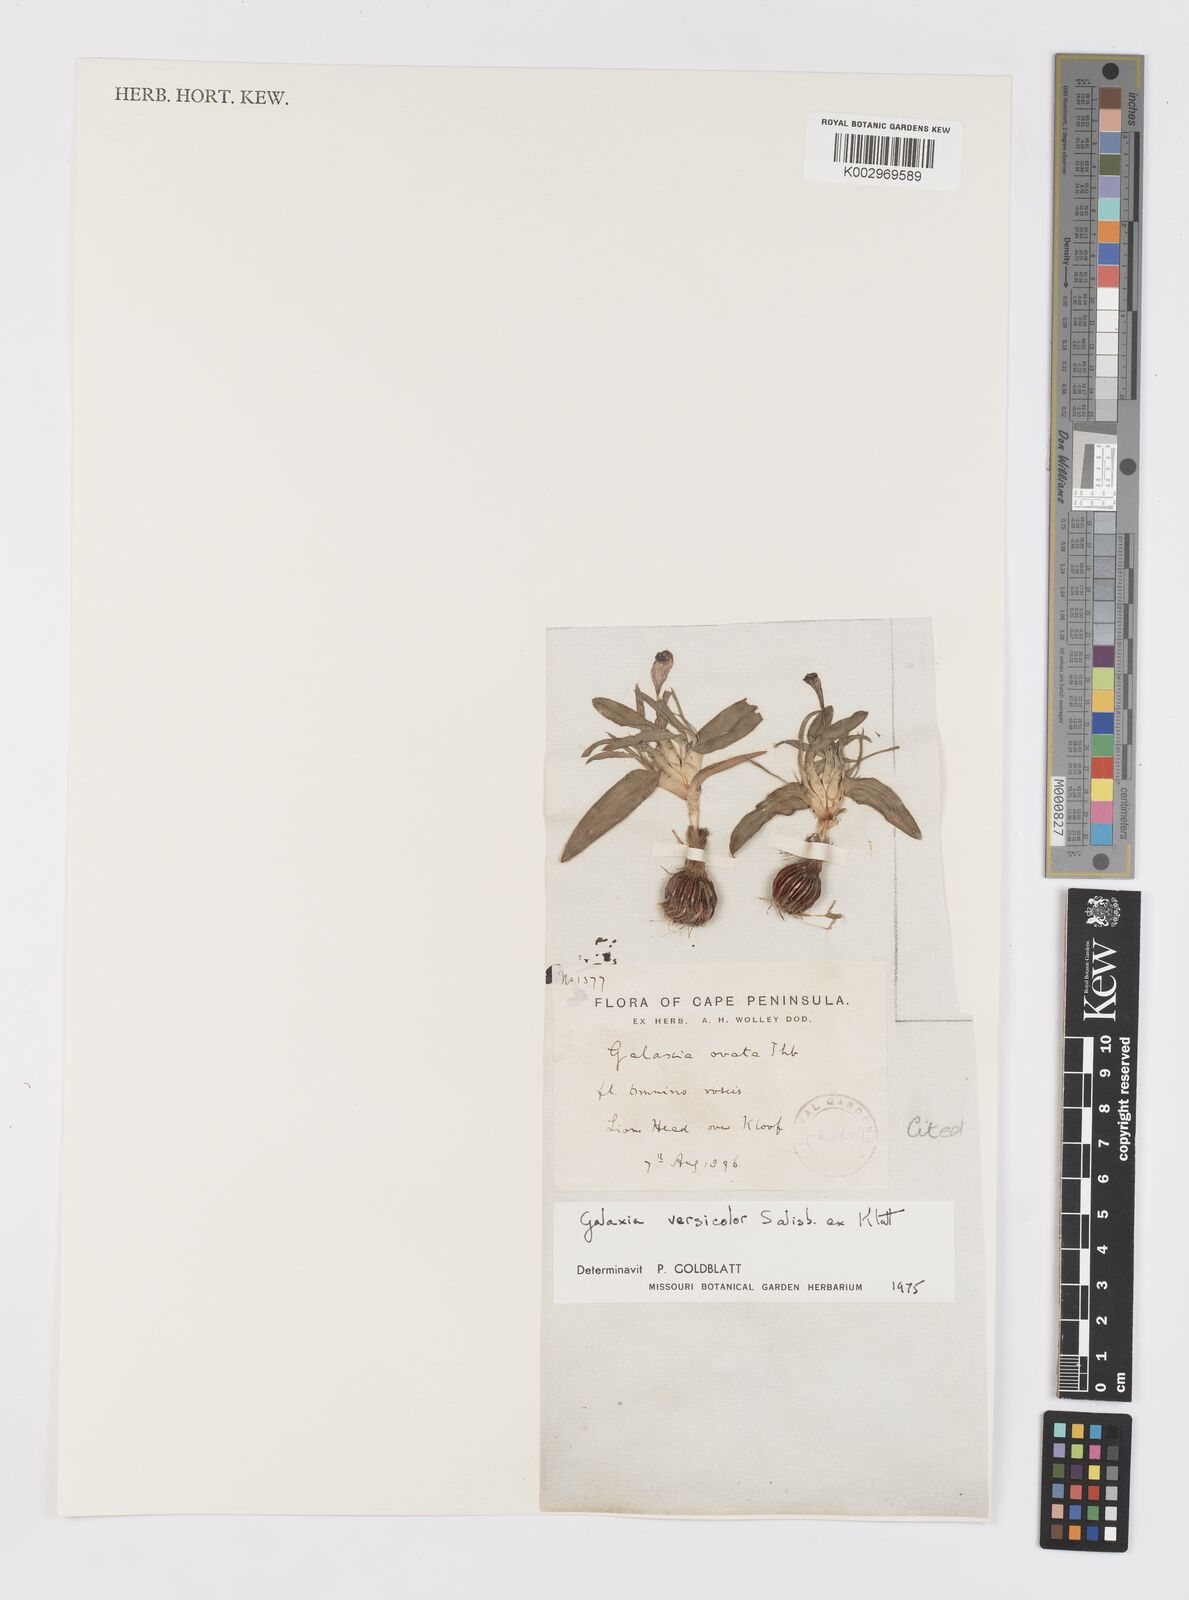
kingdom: Plantae
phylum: Tracheophyta
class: Liliopsida
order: Asparagales
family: Iridaceae
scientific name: Iridaceae
